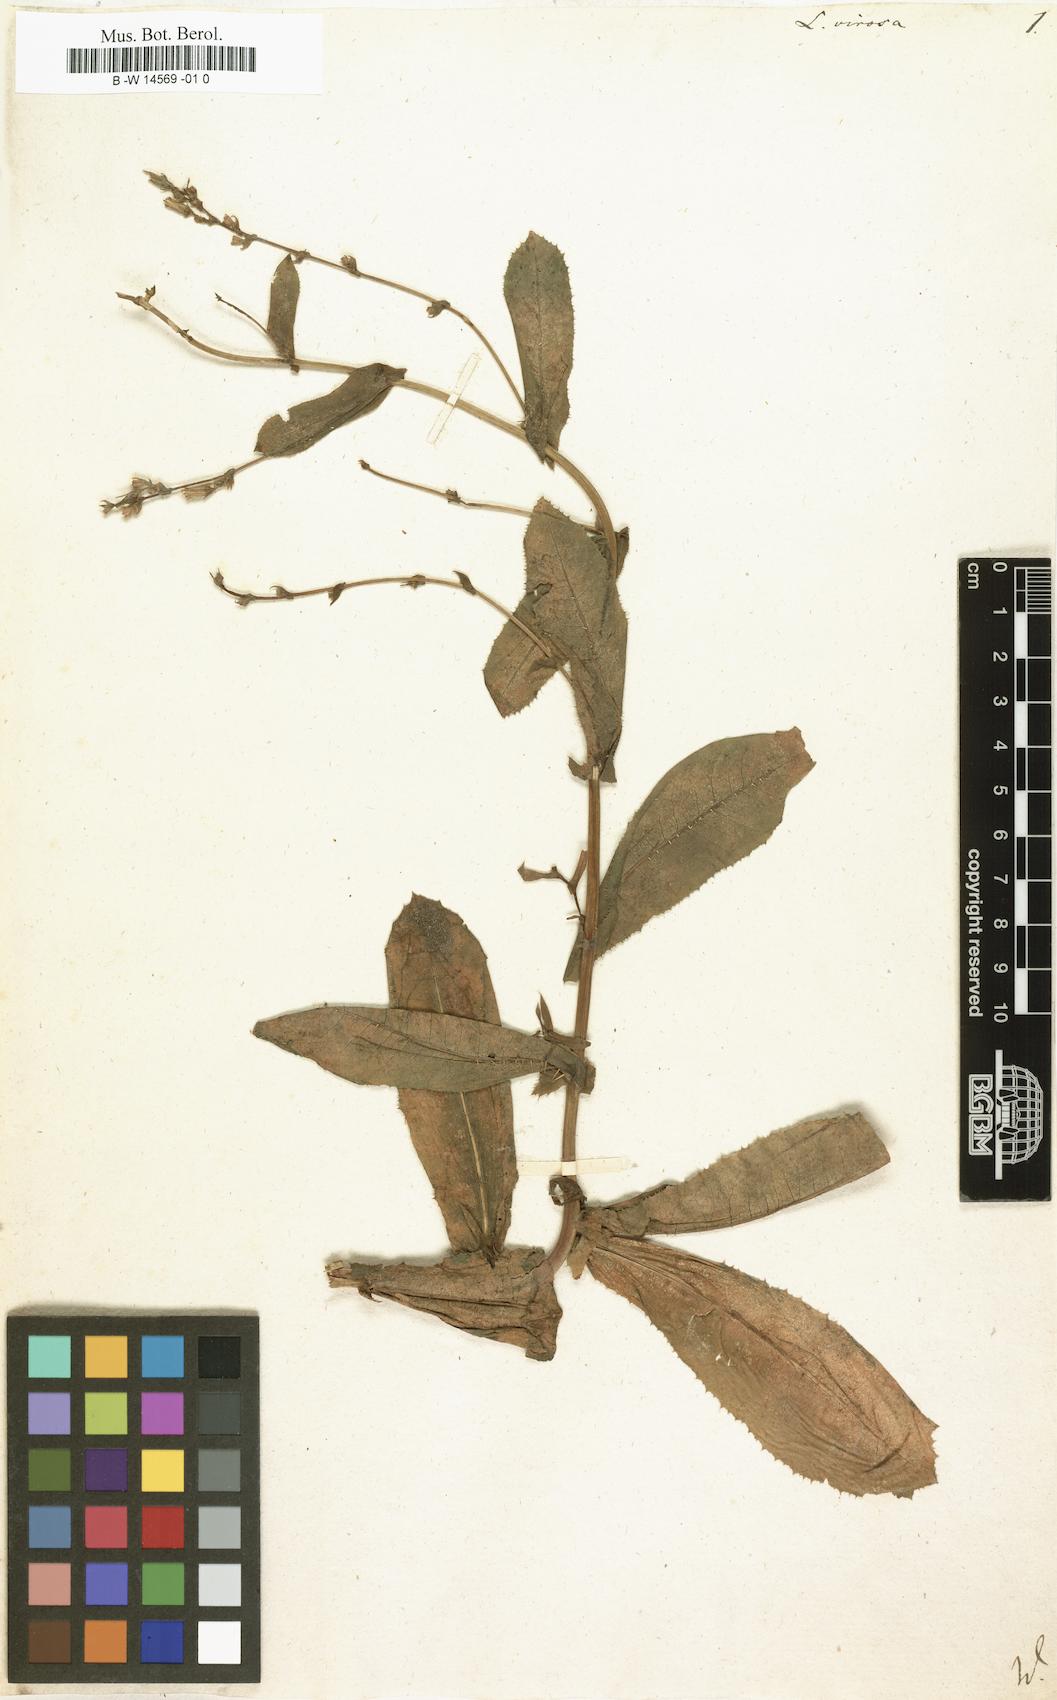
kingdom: Plantae
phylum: Tracheophyta
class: Magnoliopsida
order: Asterales
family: Asteraceae
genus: Lactuca
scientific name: Lactuca virosa
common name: Great lettuce
